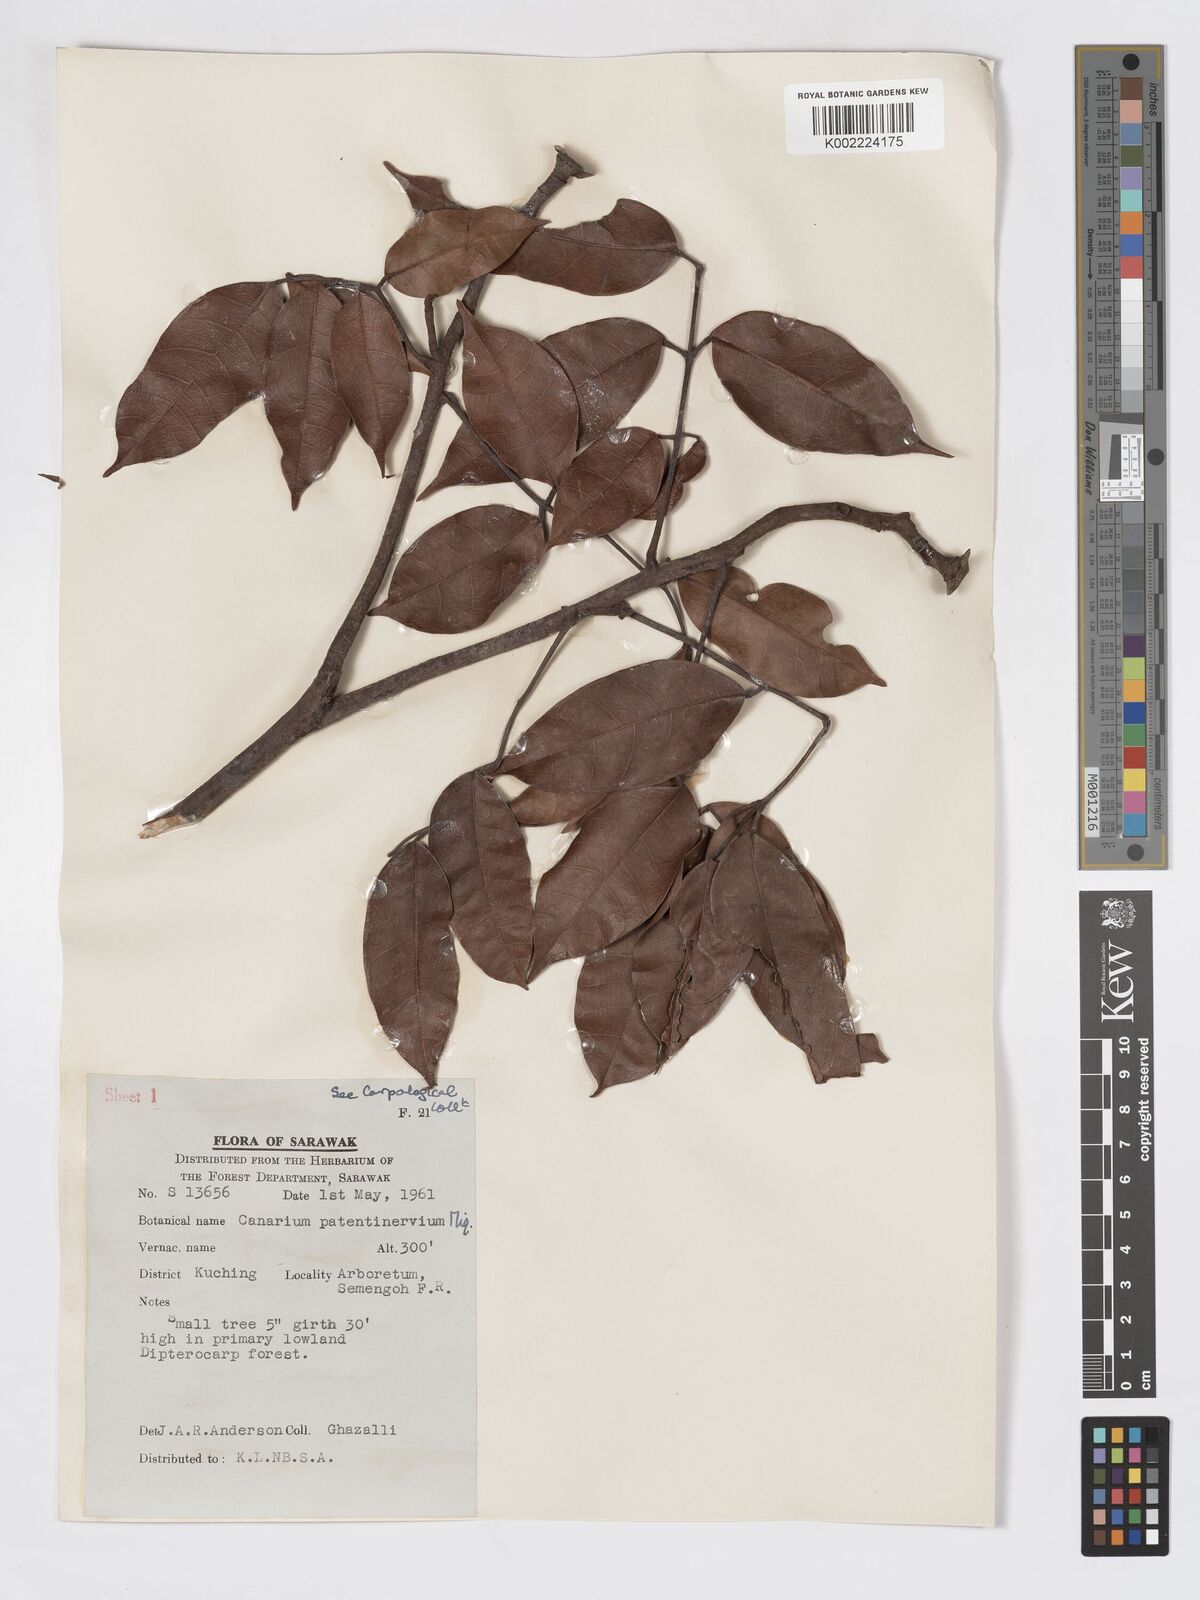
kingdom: Plantae
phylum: Tracheophyta
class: Magnoliopsida
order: Sapindales
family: Burseraceae
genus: Canarium
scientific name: Canarium patentinervium
